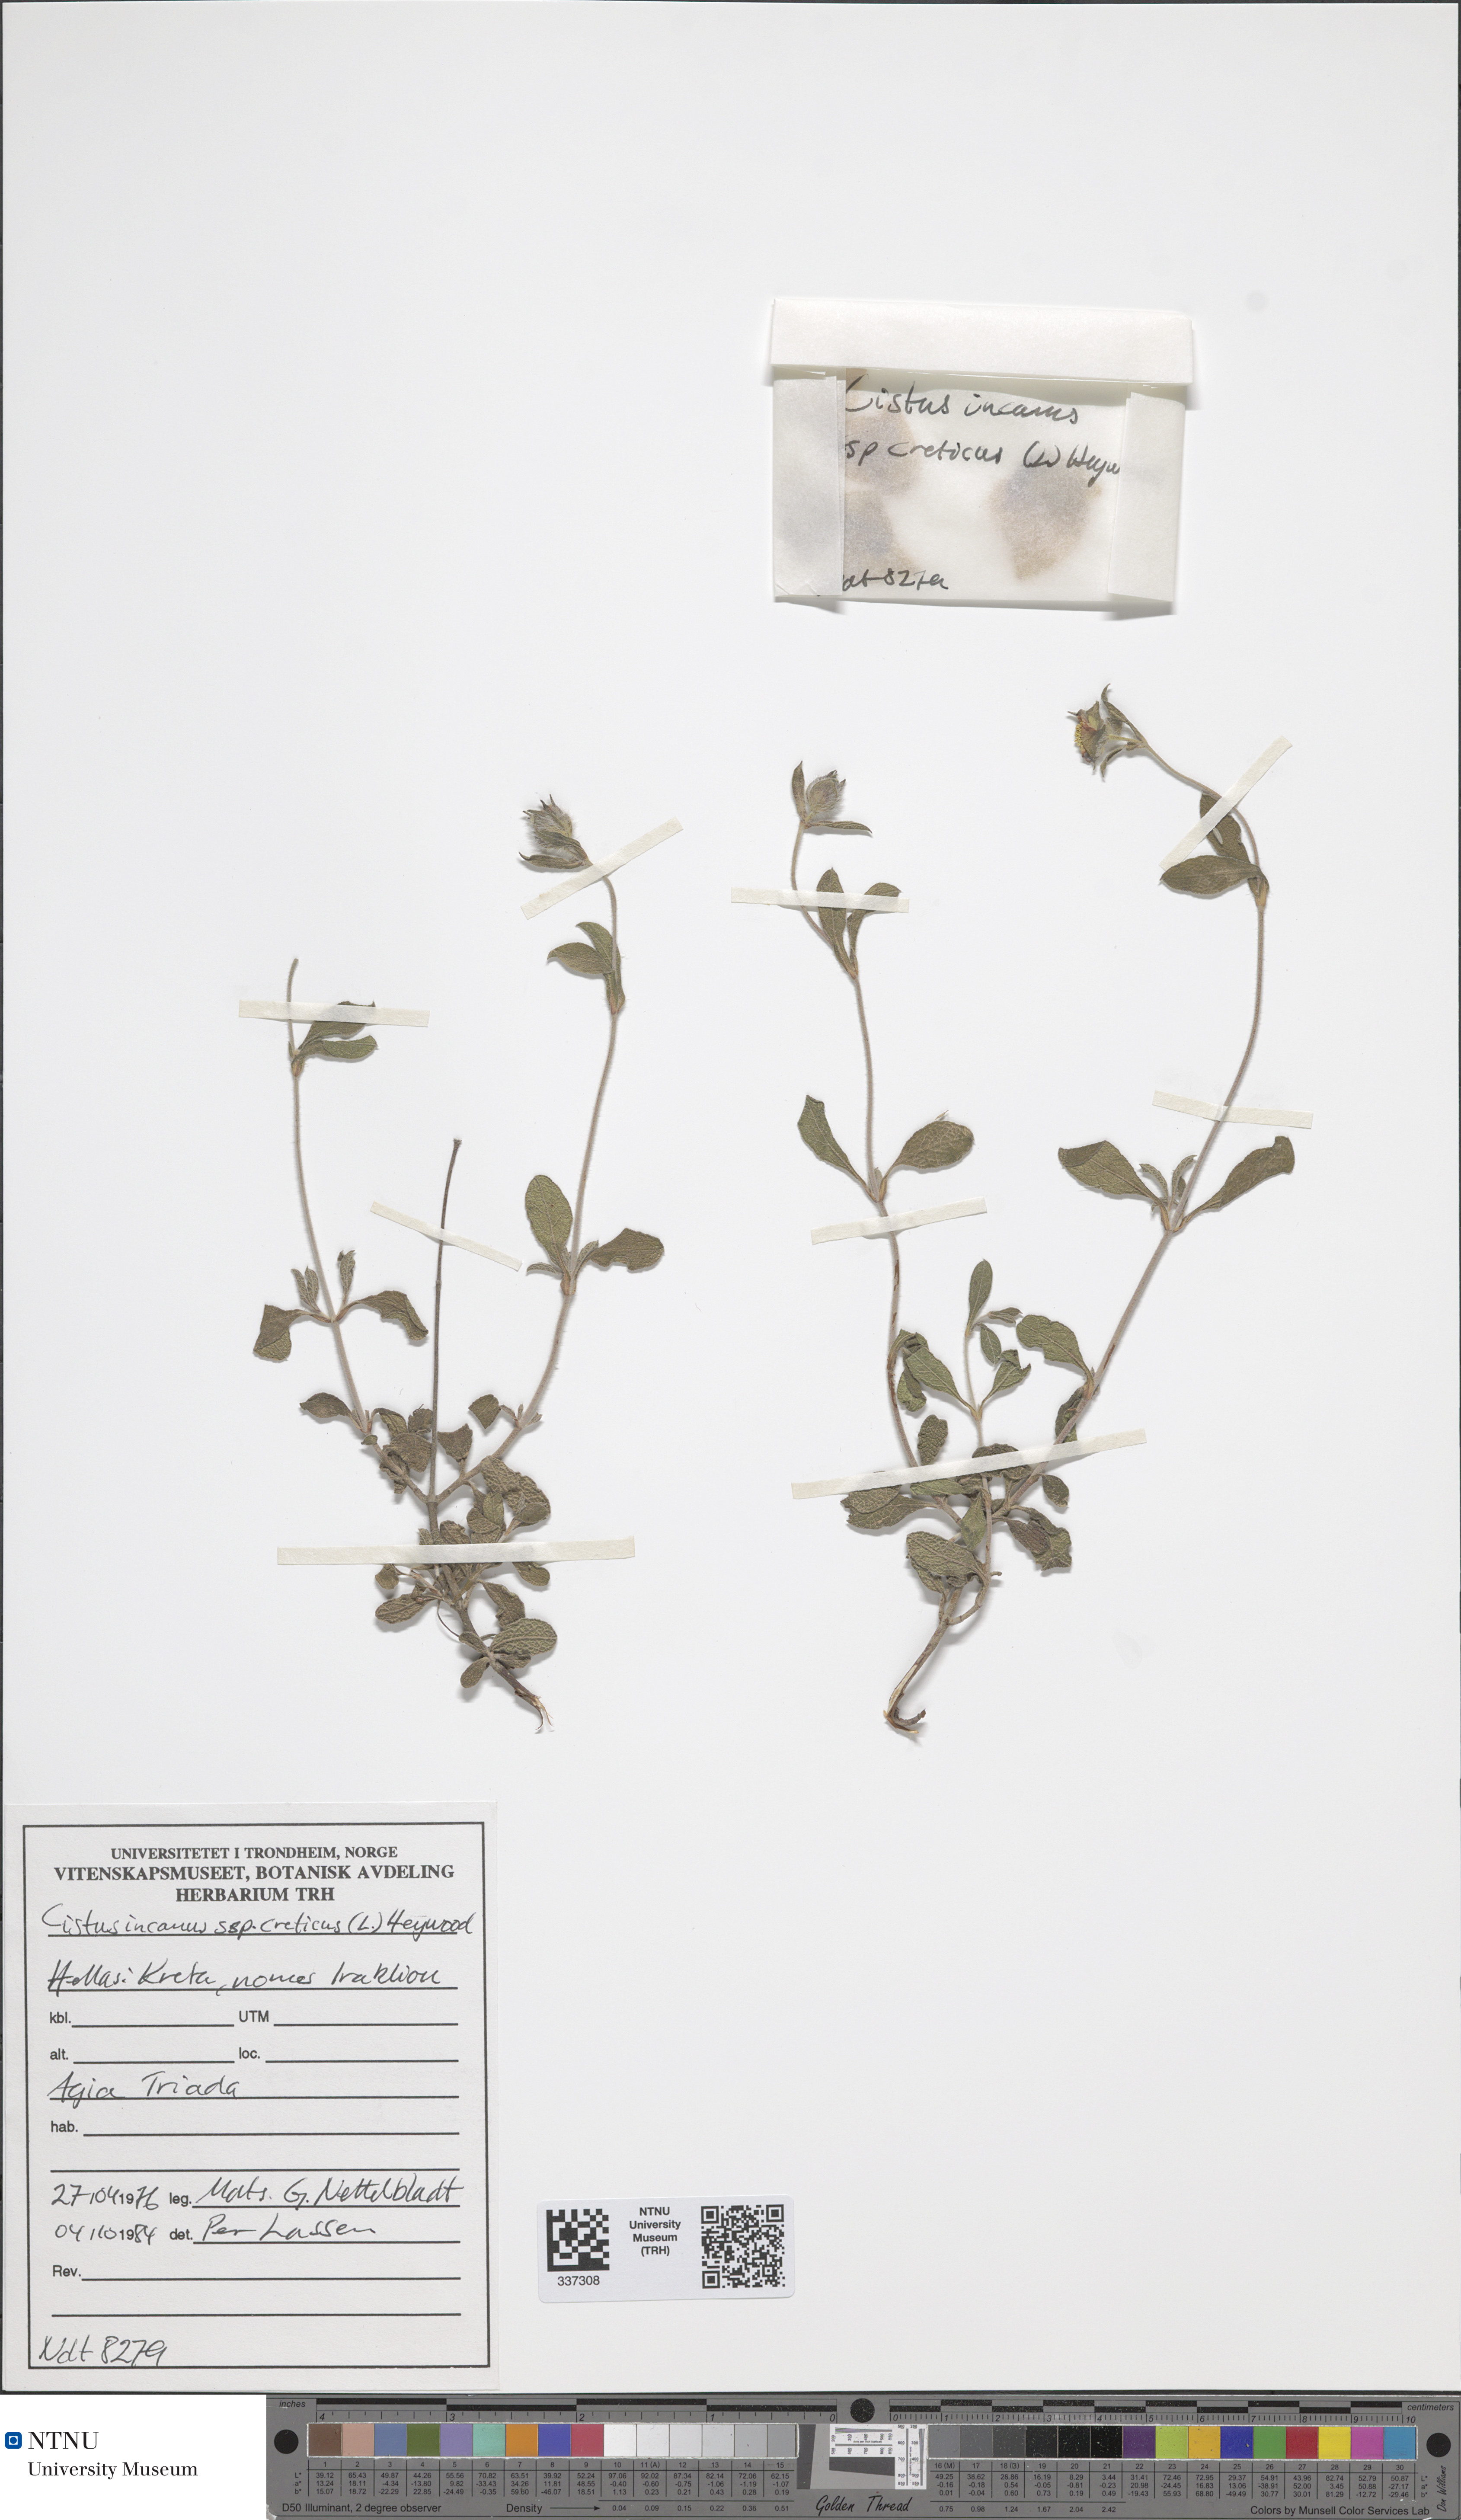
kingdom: Plantae
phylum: Tracheophyta
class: Magnoliopsida
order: Malvales
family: Cistaceae
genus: Cistus
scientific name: Cistus incanus
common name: Hairy rockrose
